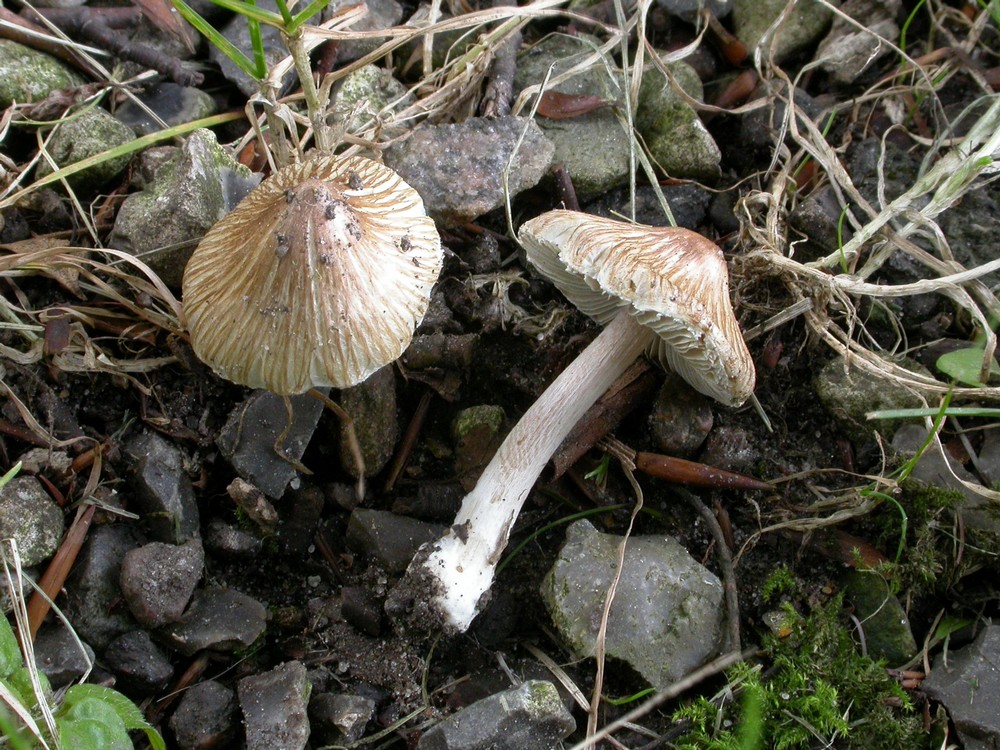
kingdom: Fungi
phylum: Basidiomycota
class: Agaricomycetes
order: Agaricales
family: Inocybaceae
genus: Pseudosperma
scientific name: Pseudosperma rimosum
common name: gulbladet trævlhat
